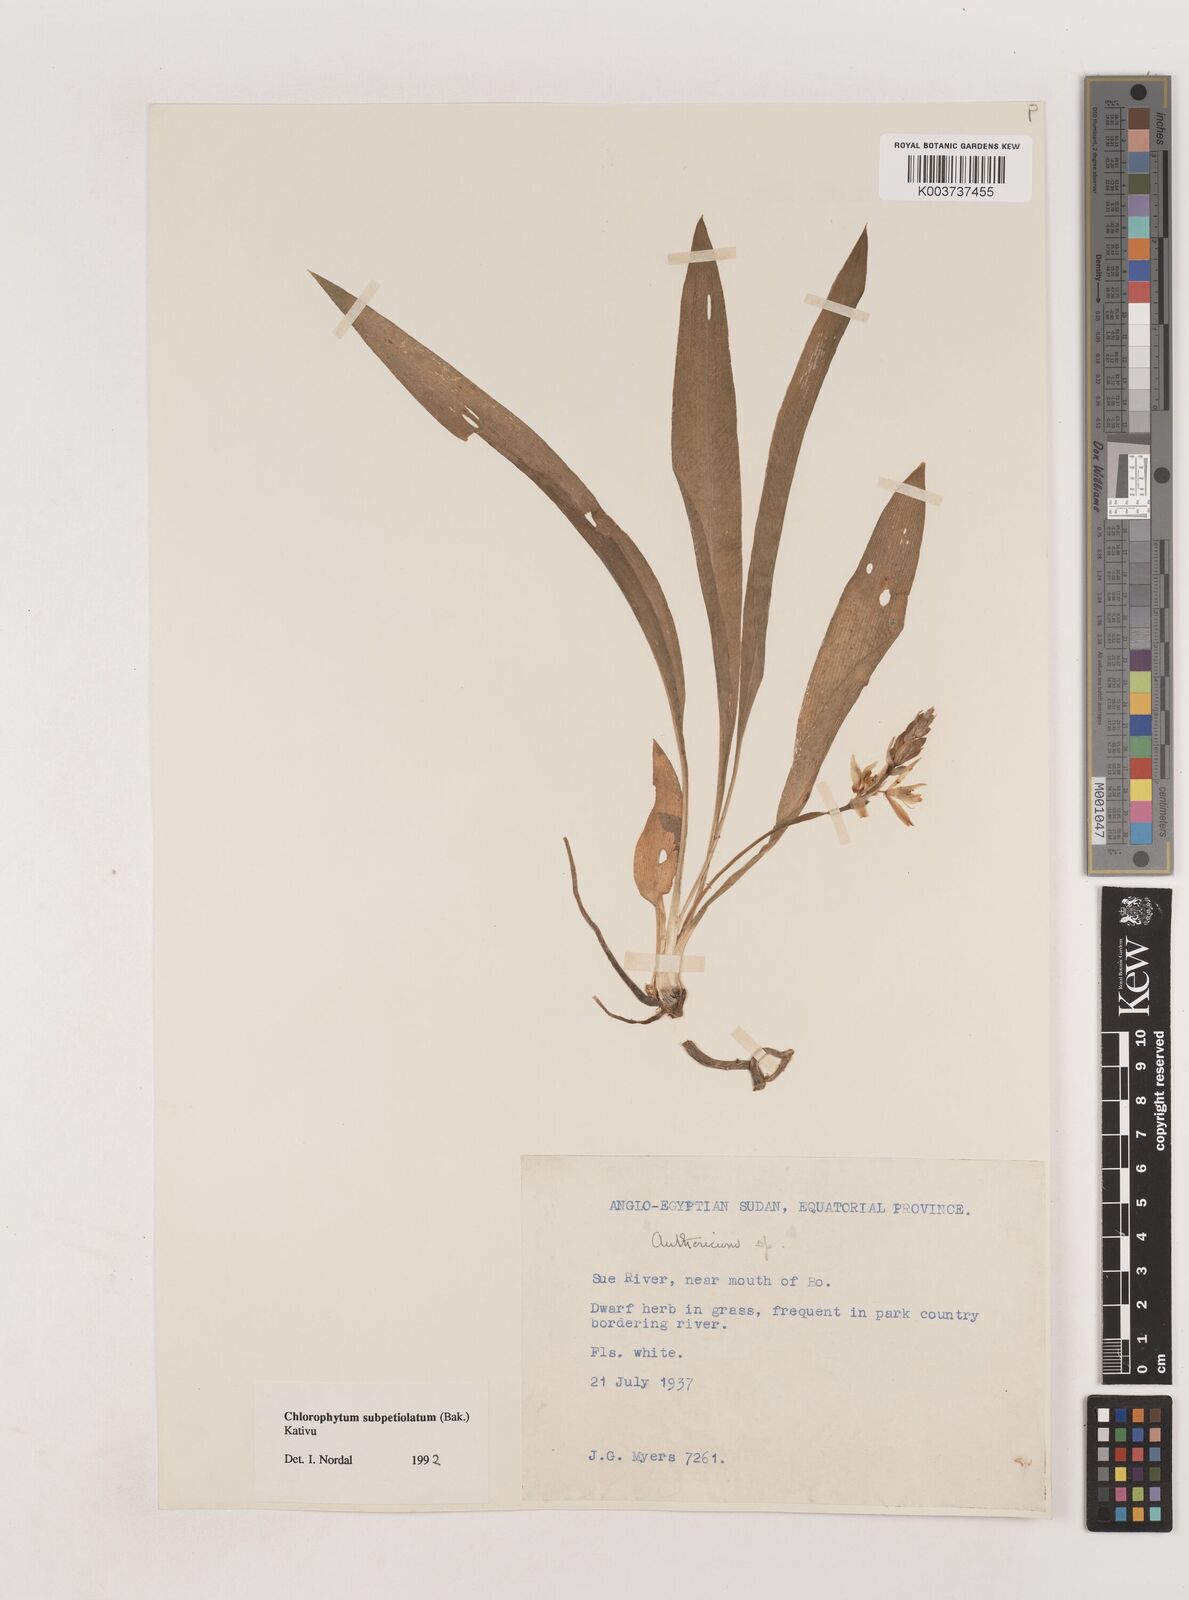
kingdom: Plantae
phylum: Tracheophyta
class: Liliopsida
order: Asparagales
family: Asparagaceae
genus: Chlorophytum
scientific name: Chlorophytum subpetiolatum
